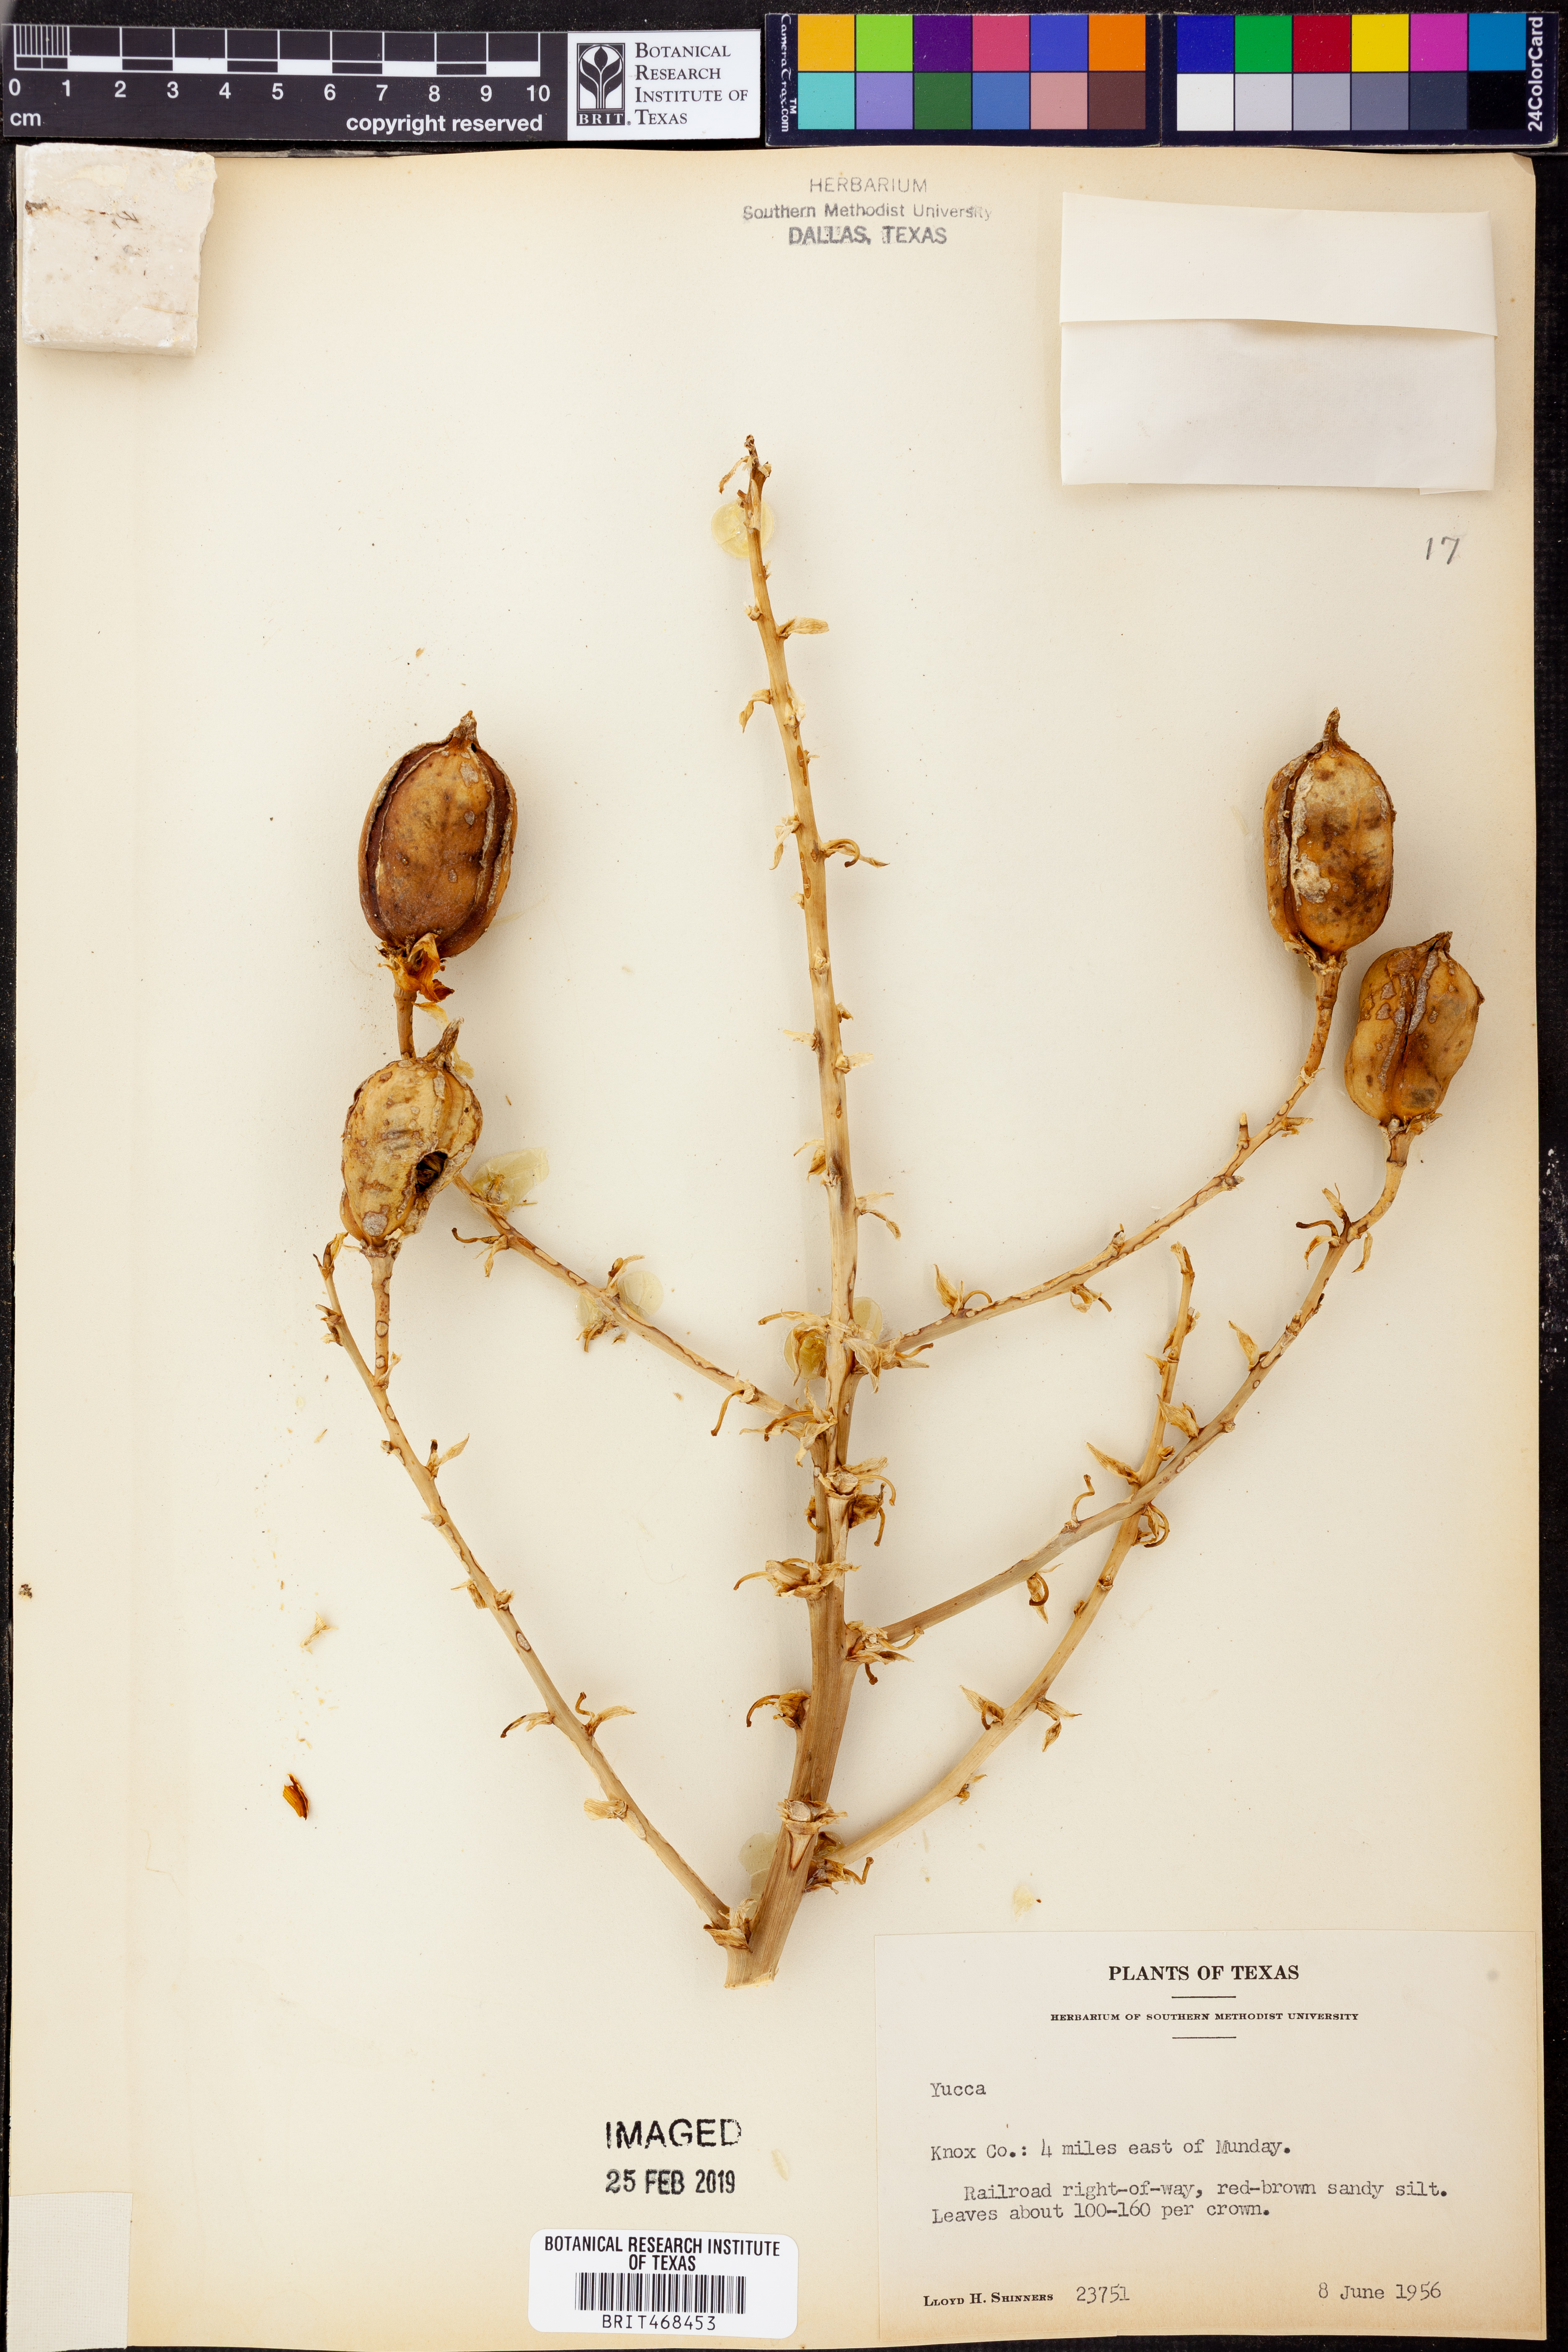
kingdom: Plantae
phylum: Tracheophyta
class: Liliopsida
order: Asparagales
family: Asparagaceae
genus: Yucca
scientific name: Yucca
